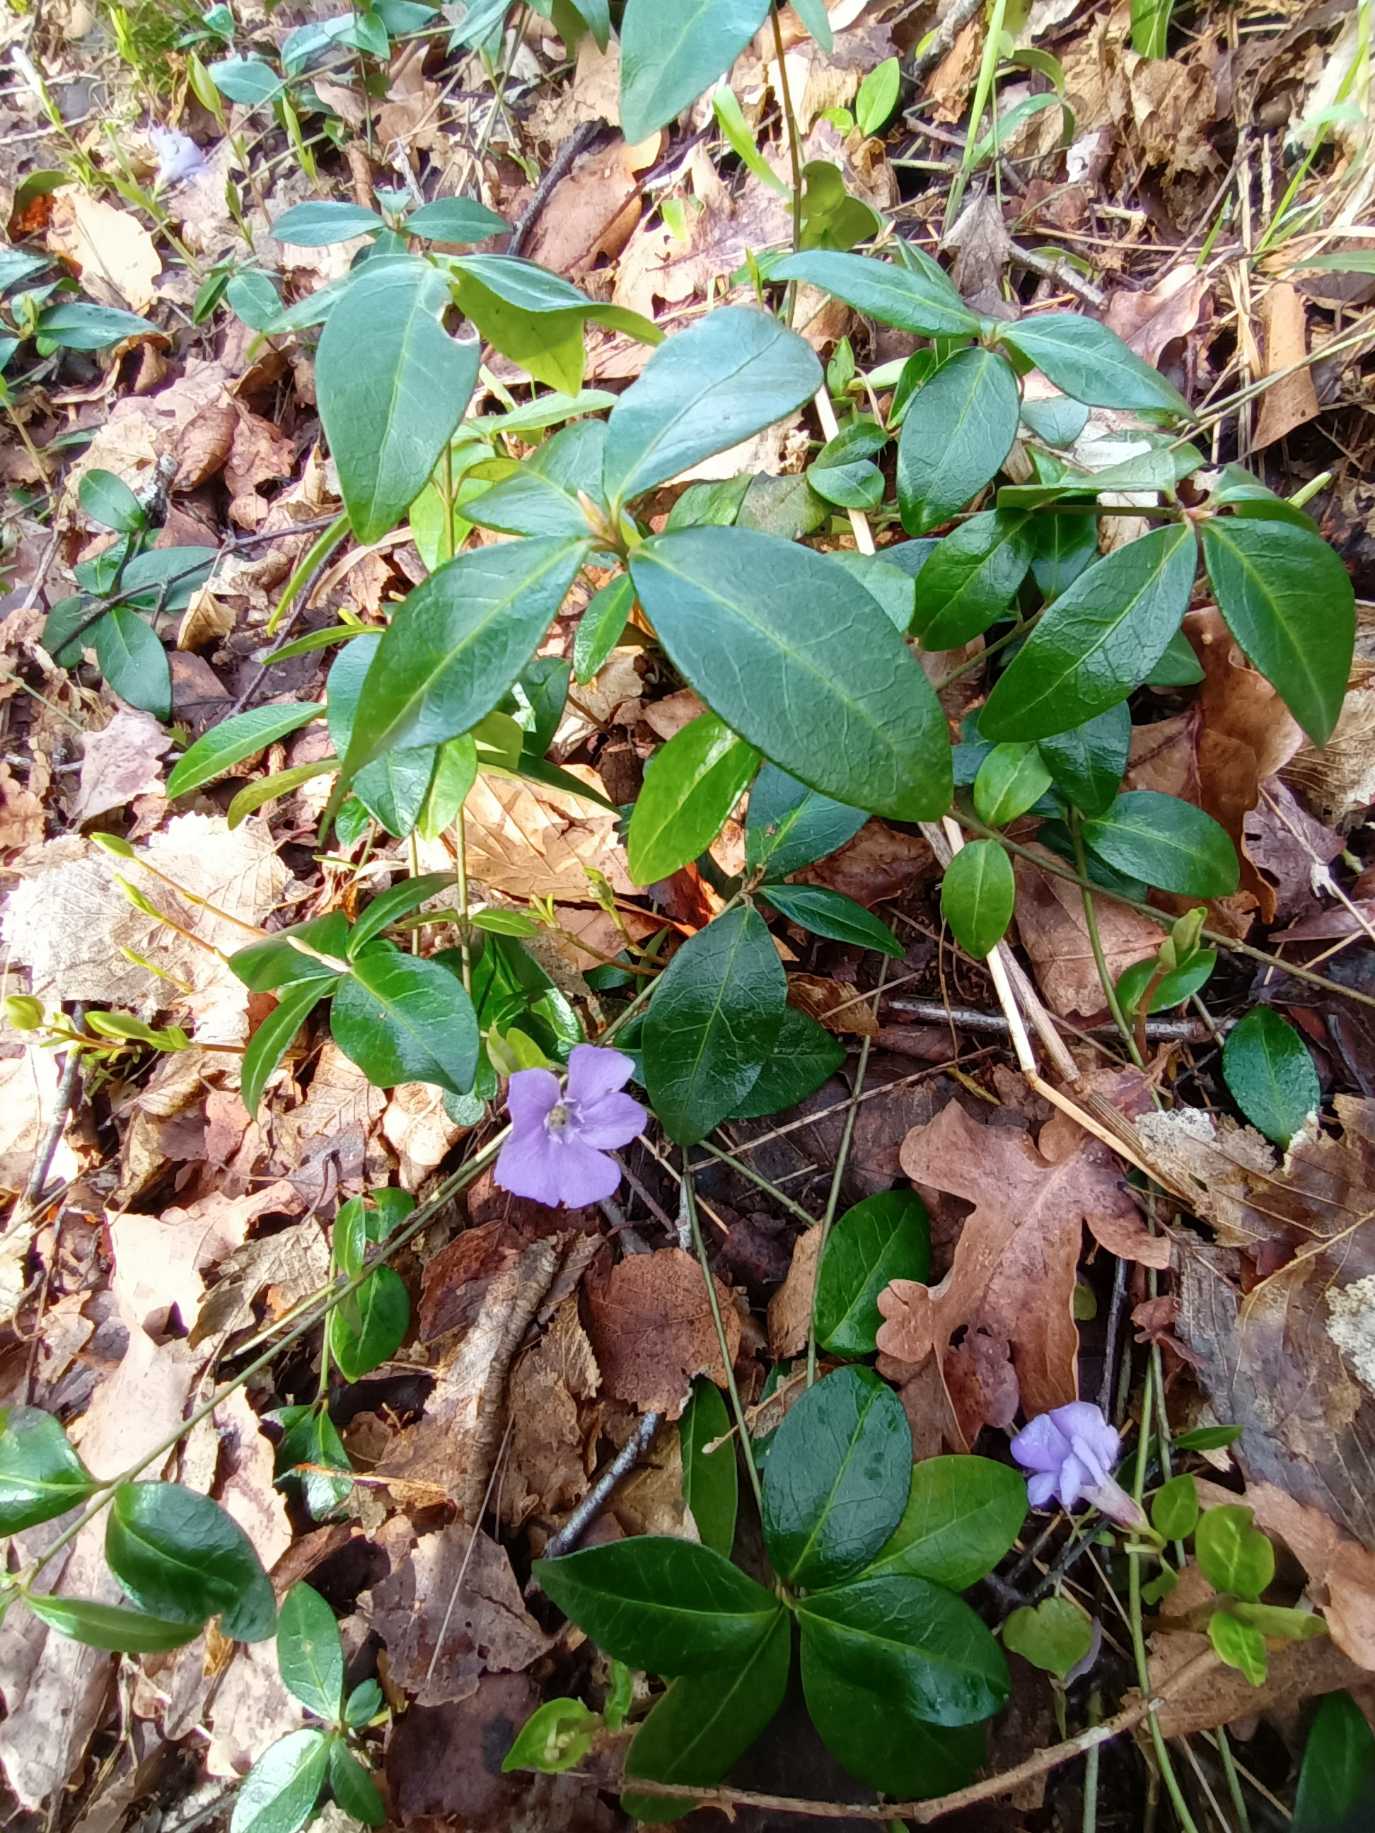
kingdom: Plantae
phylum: Tracheophyta
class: Magnoliopsida
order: Gentianales
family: Apocynaceae
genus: Vinca
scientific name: Vinca minor
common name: Liden singrøn
